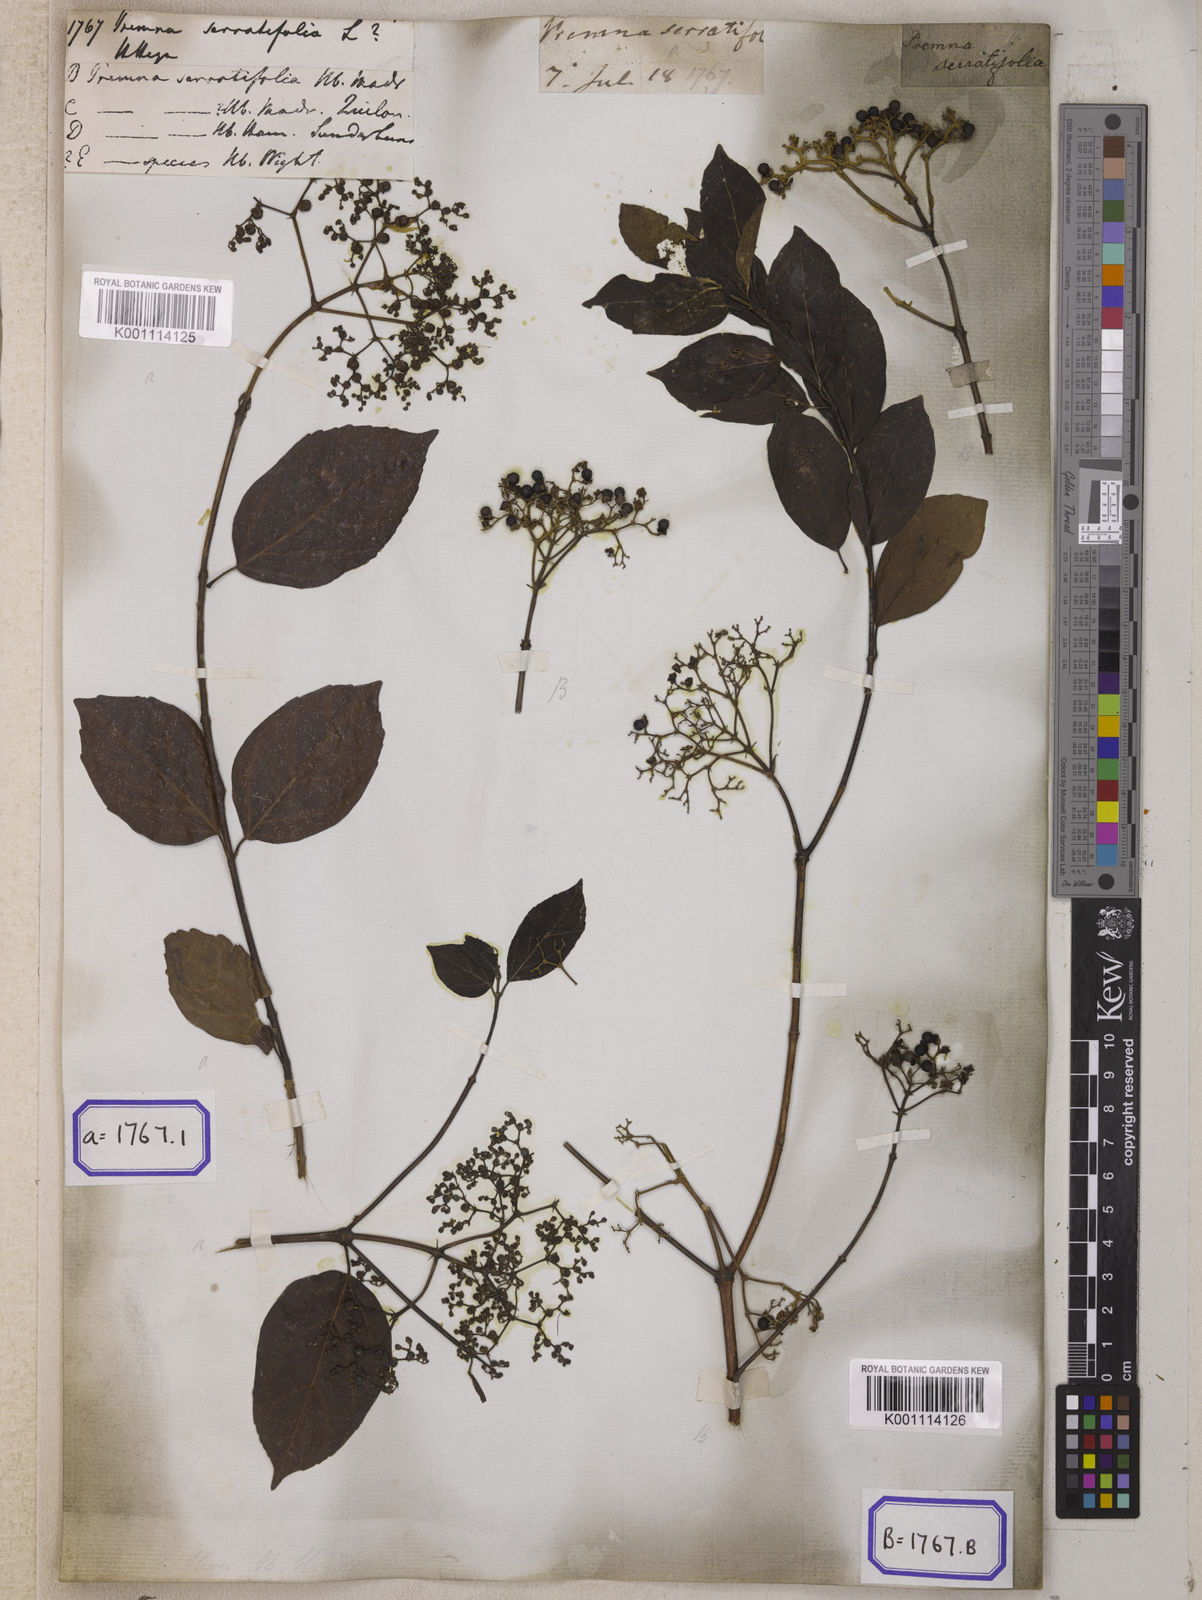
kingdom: Plantae
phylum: Tracheophyta
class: Magnoliopsida
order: Lamiales
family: Lamiaceae
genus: Premna
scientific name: Premna serratifolia
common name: Bastard guelder
